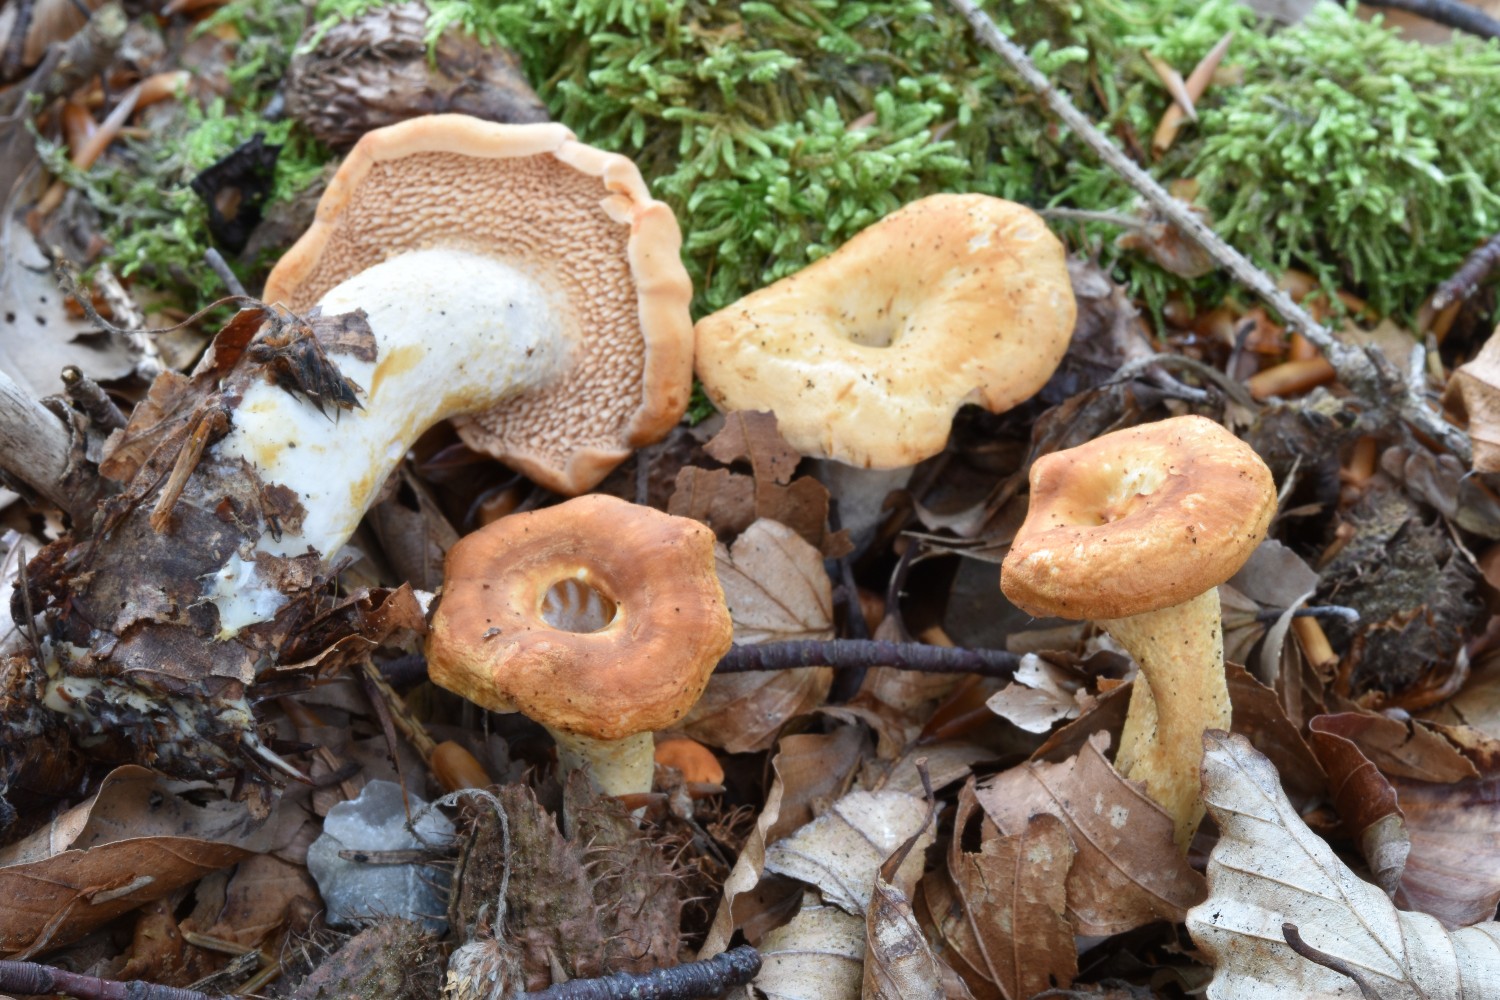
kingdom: Fungi
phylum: Basidiomycota
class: Agaricomycetes
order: Cantharellales
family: Hydnaceae
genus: Hydnum
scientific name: Hydnum umbilicatum
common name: navle-pigsvamp
